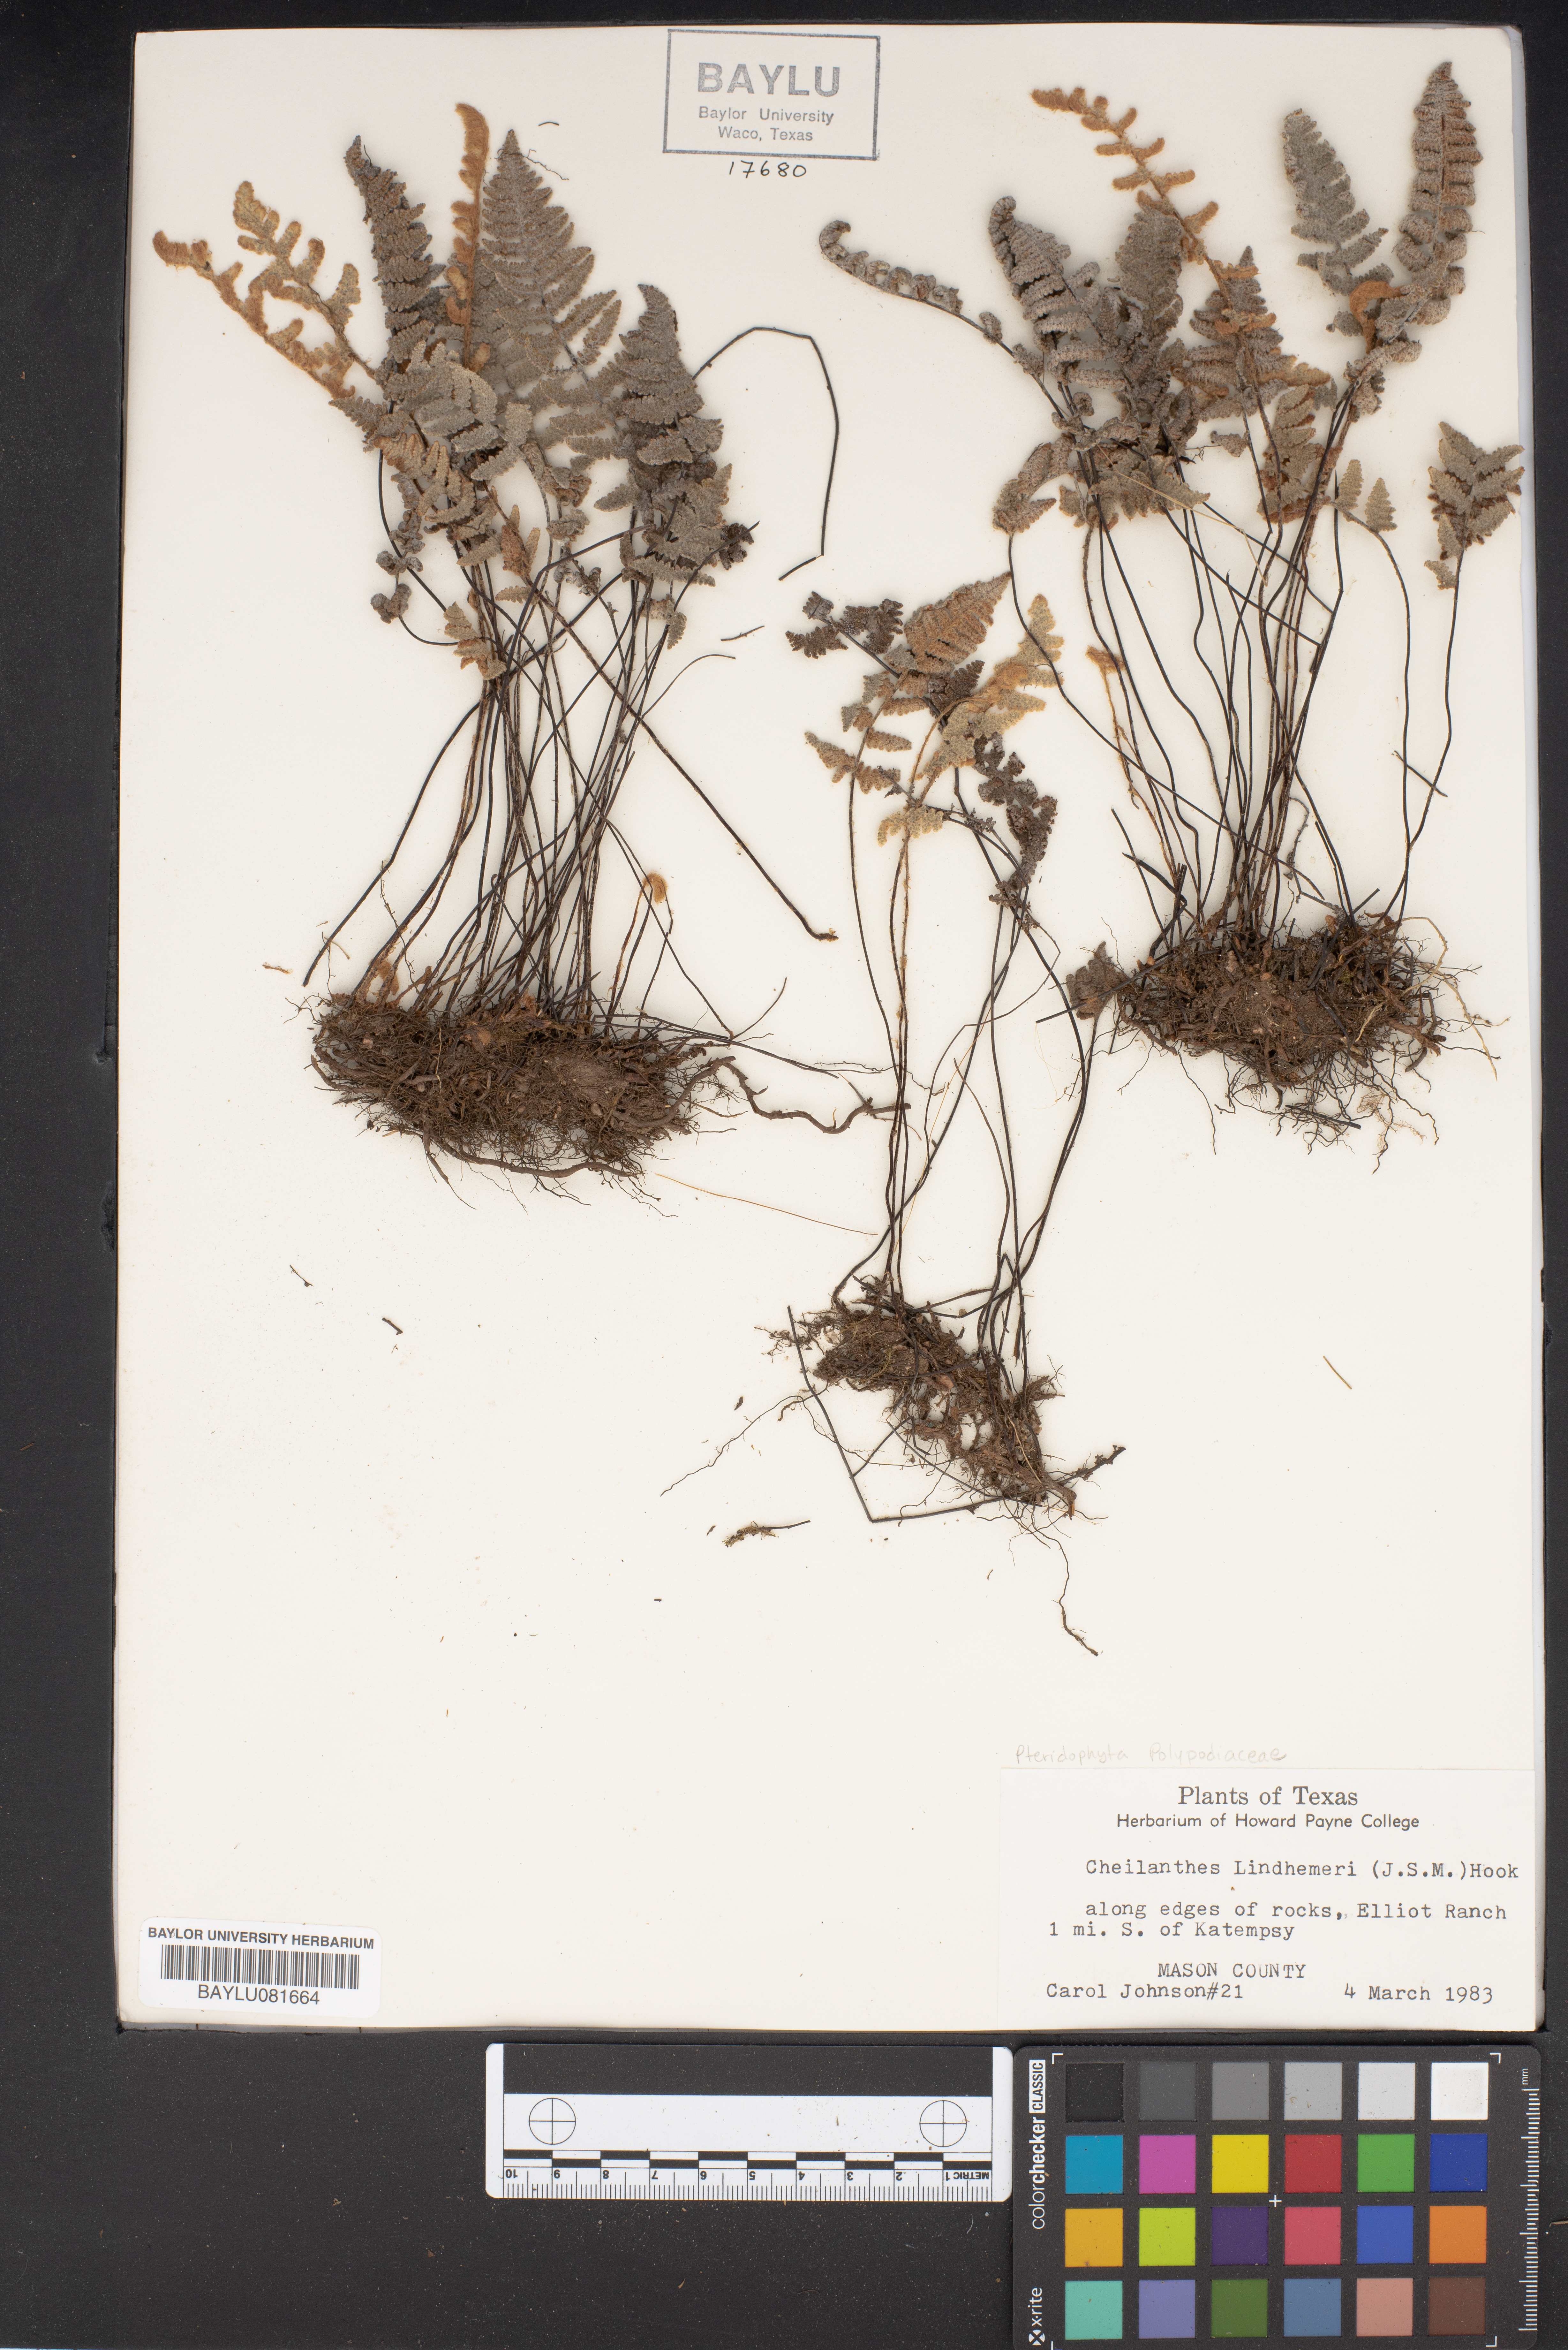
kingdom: Plantae
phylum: Tracheophyta
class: Polypodiopsida
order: Polypodiales
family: Pteridaceae
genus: Myriopteris
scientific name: Myriopteris lindheimeri
